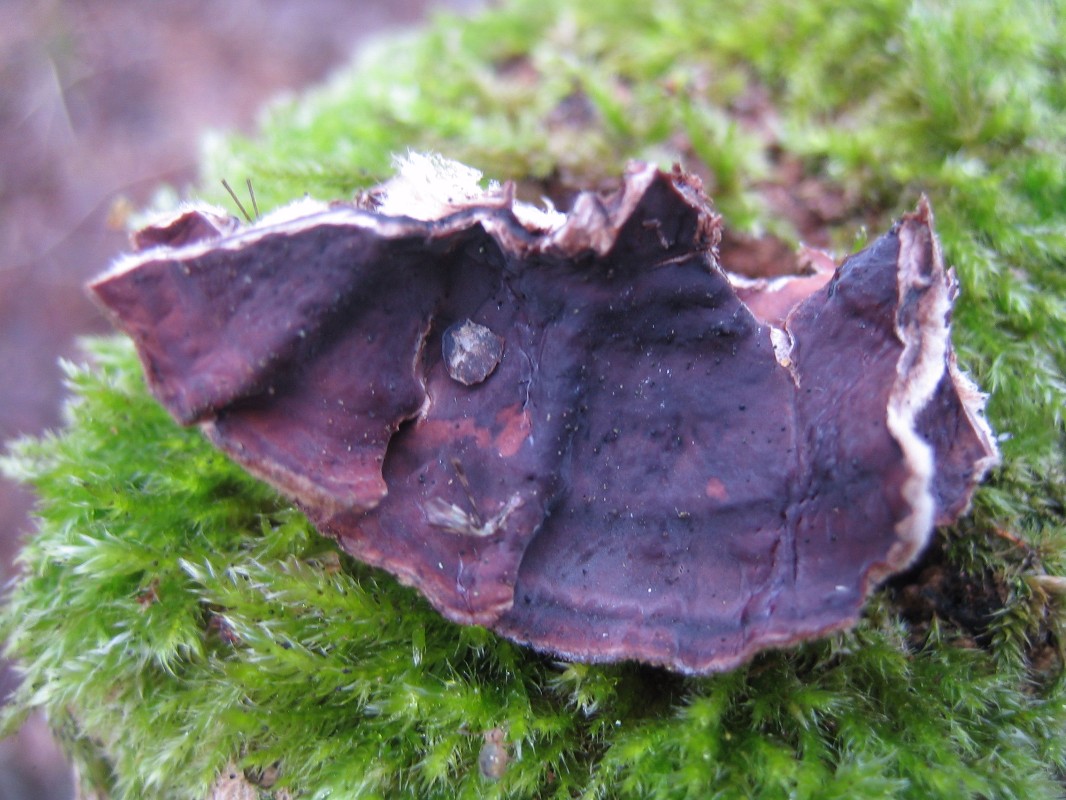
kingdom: Fungi
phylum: Basidiomycota
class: Agaricomycetes
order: Agaricales
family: Cyphellaceae
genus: Chondrostereum
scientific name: Chondrostereum purpureum
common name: purpurlædersvamp
